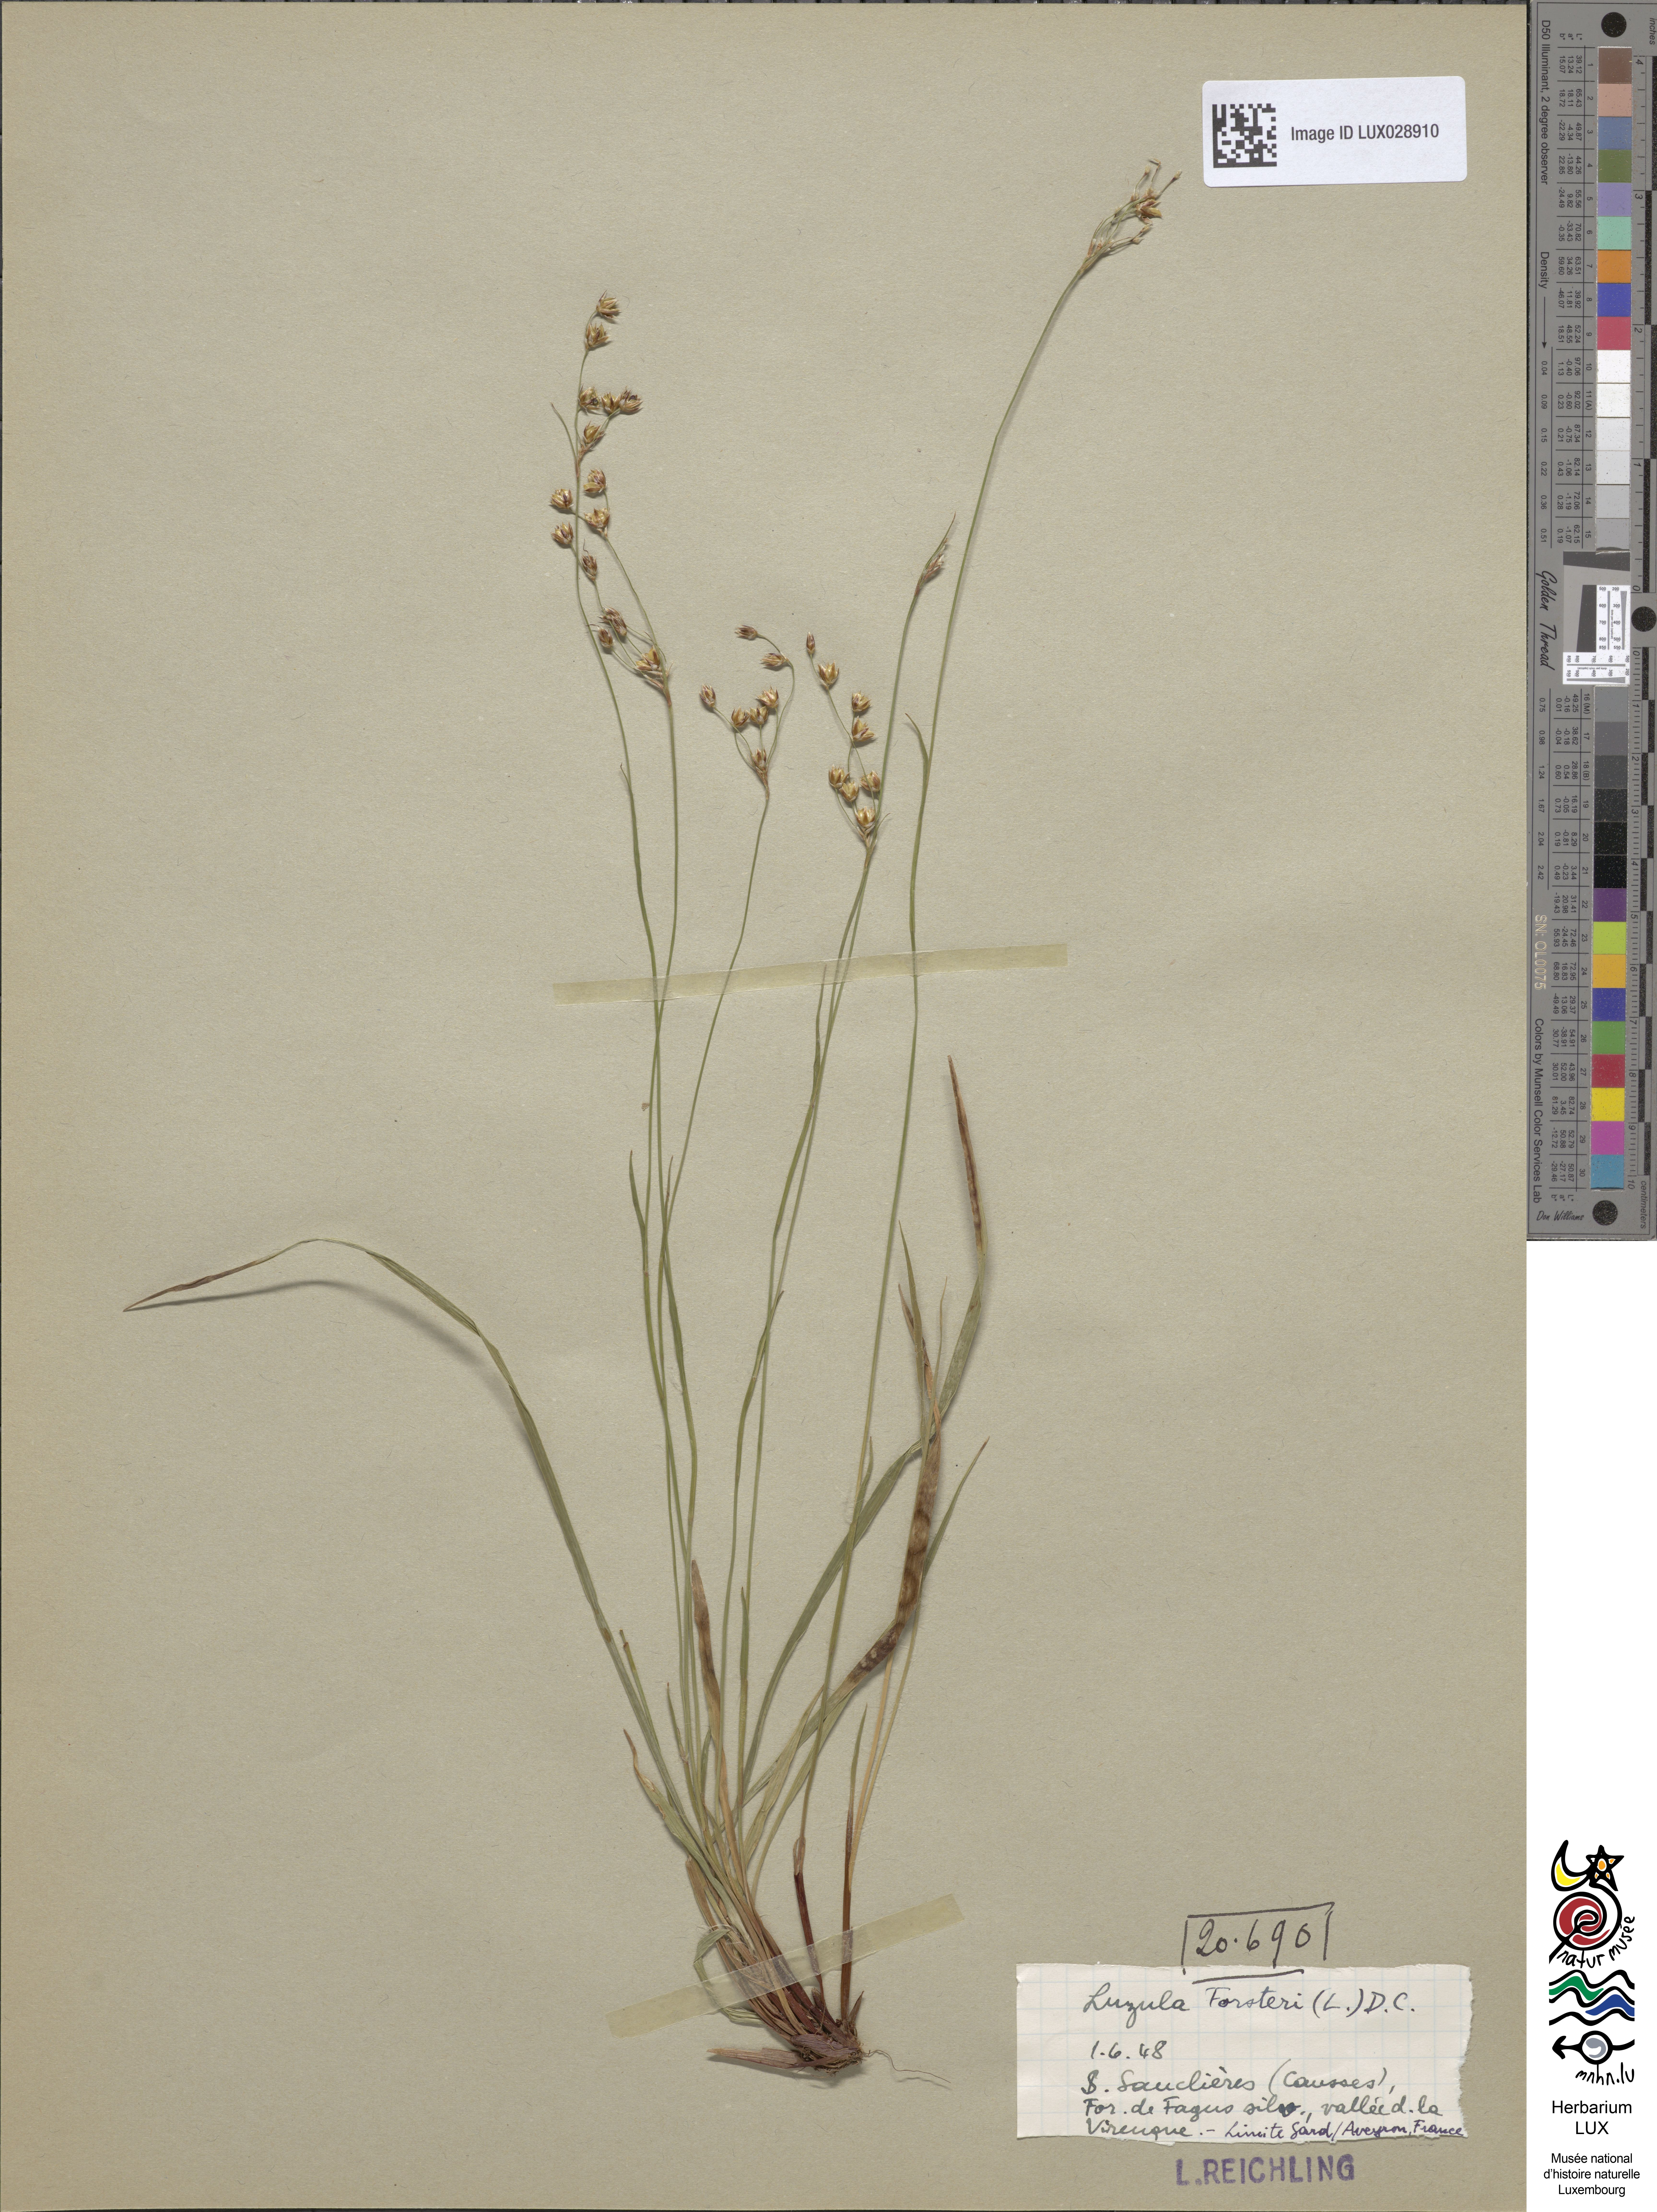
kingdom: Plantae
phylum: Tracheophyta
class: Liliopsida
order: Poales
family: Juncaceae
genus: Luzula
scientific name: Luzula forsteri
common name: Southern wood-rush
